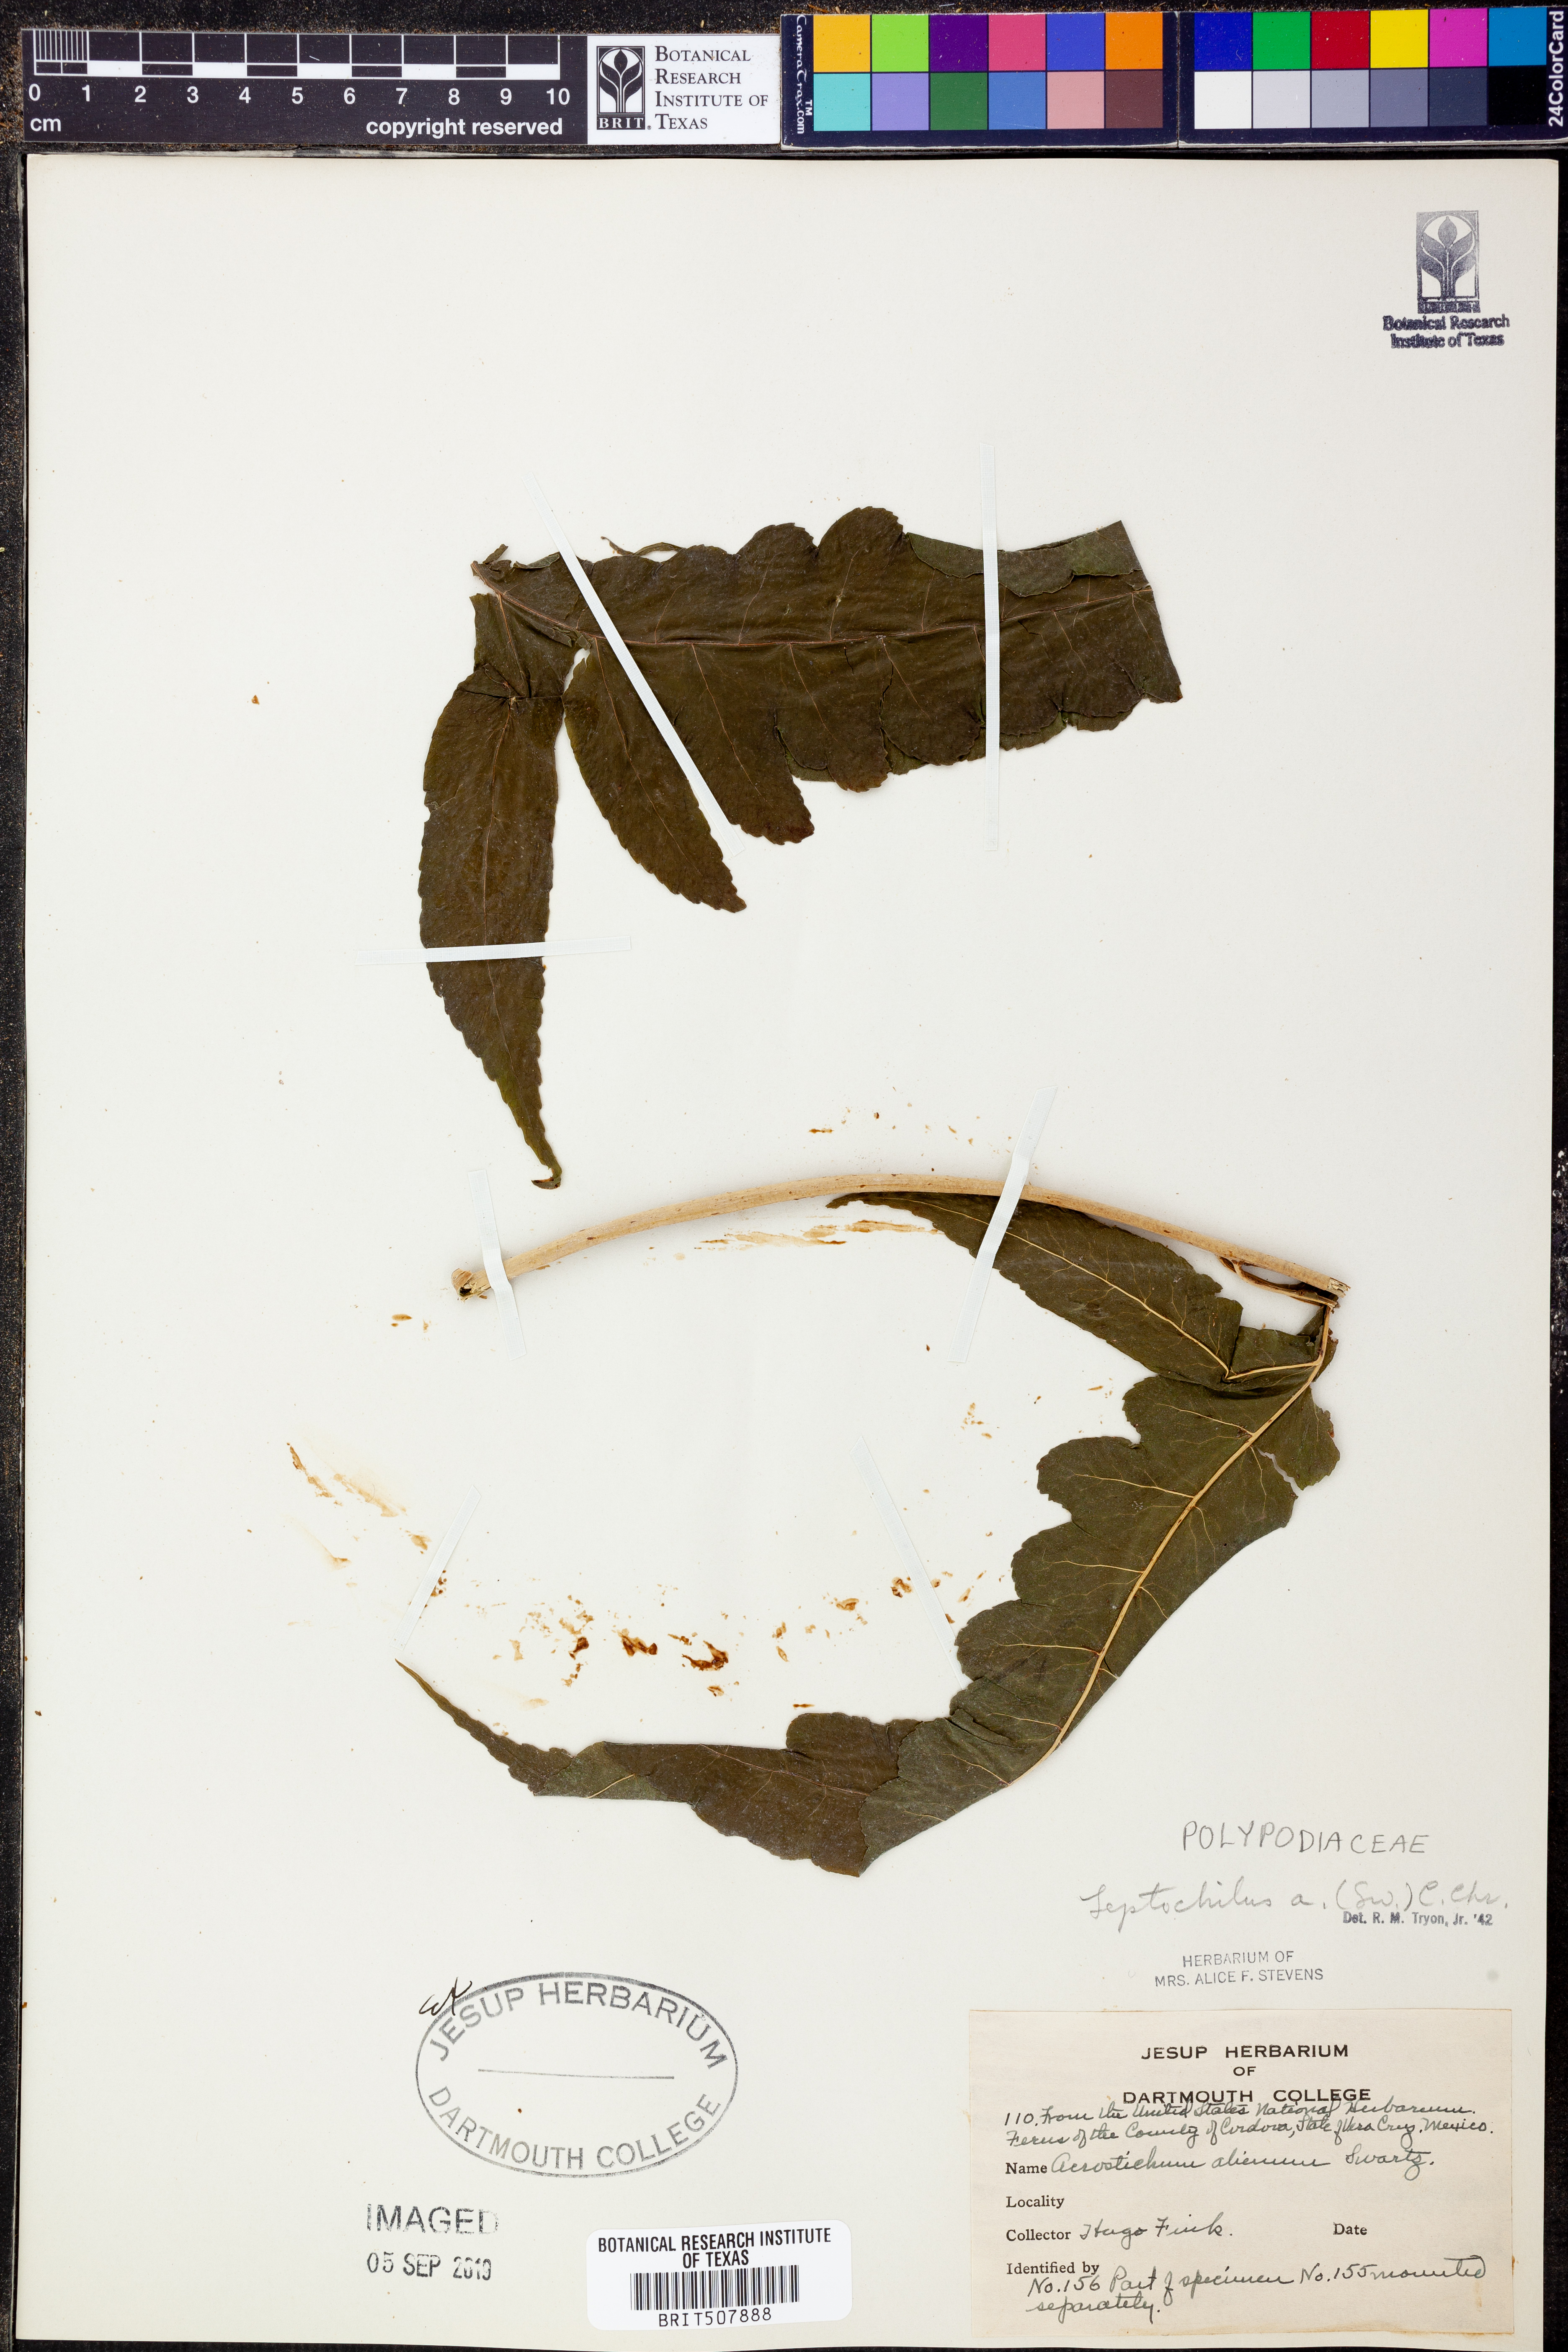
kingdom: Plantae
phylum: Tracheophyta
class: Polypodiopsida
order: Polypodiales
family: Dryopteridaceae
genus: Bolbitis
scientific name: Bolbitis aliena
